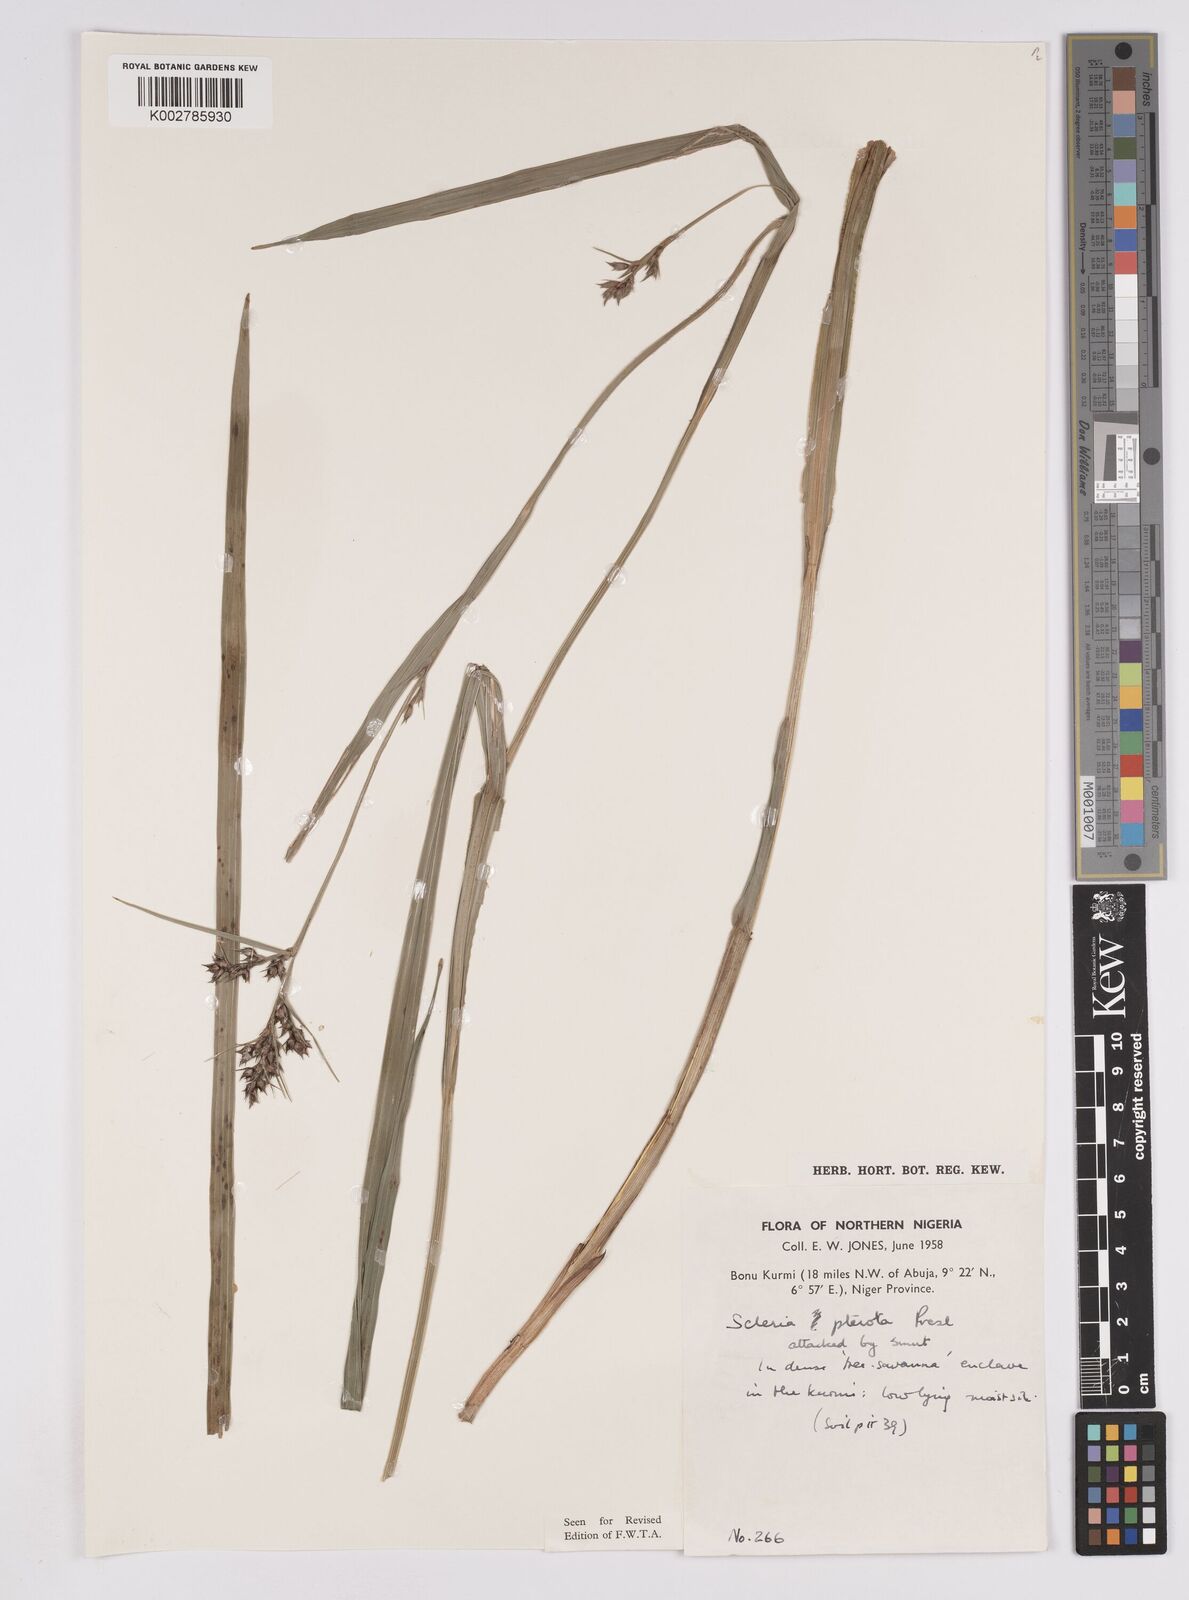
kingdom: Plantae
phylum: Tracheophyta
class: Liliopsida
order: Poales
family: Cyperaceae
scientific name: Cyperaceae
